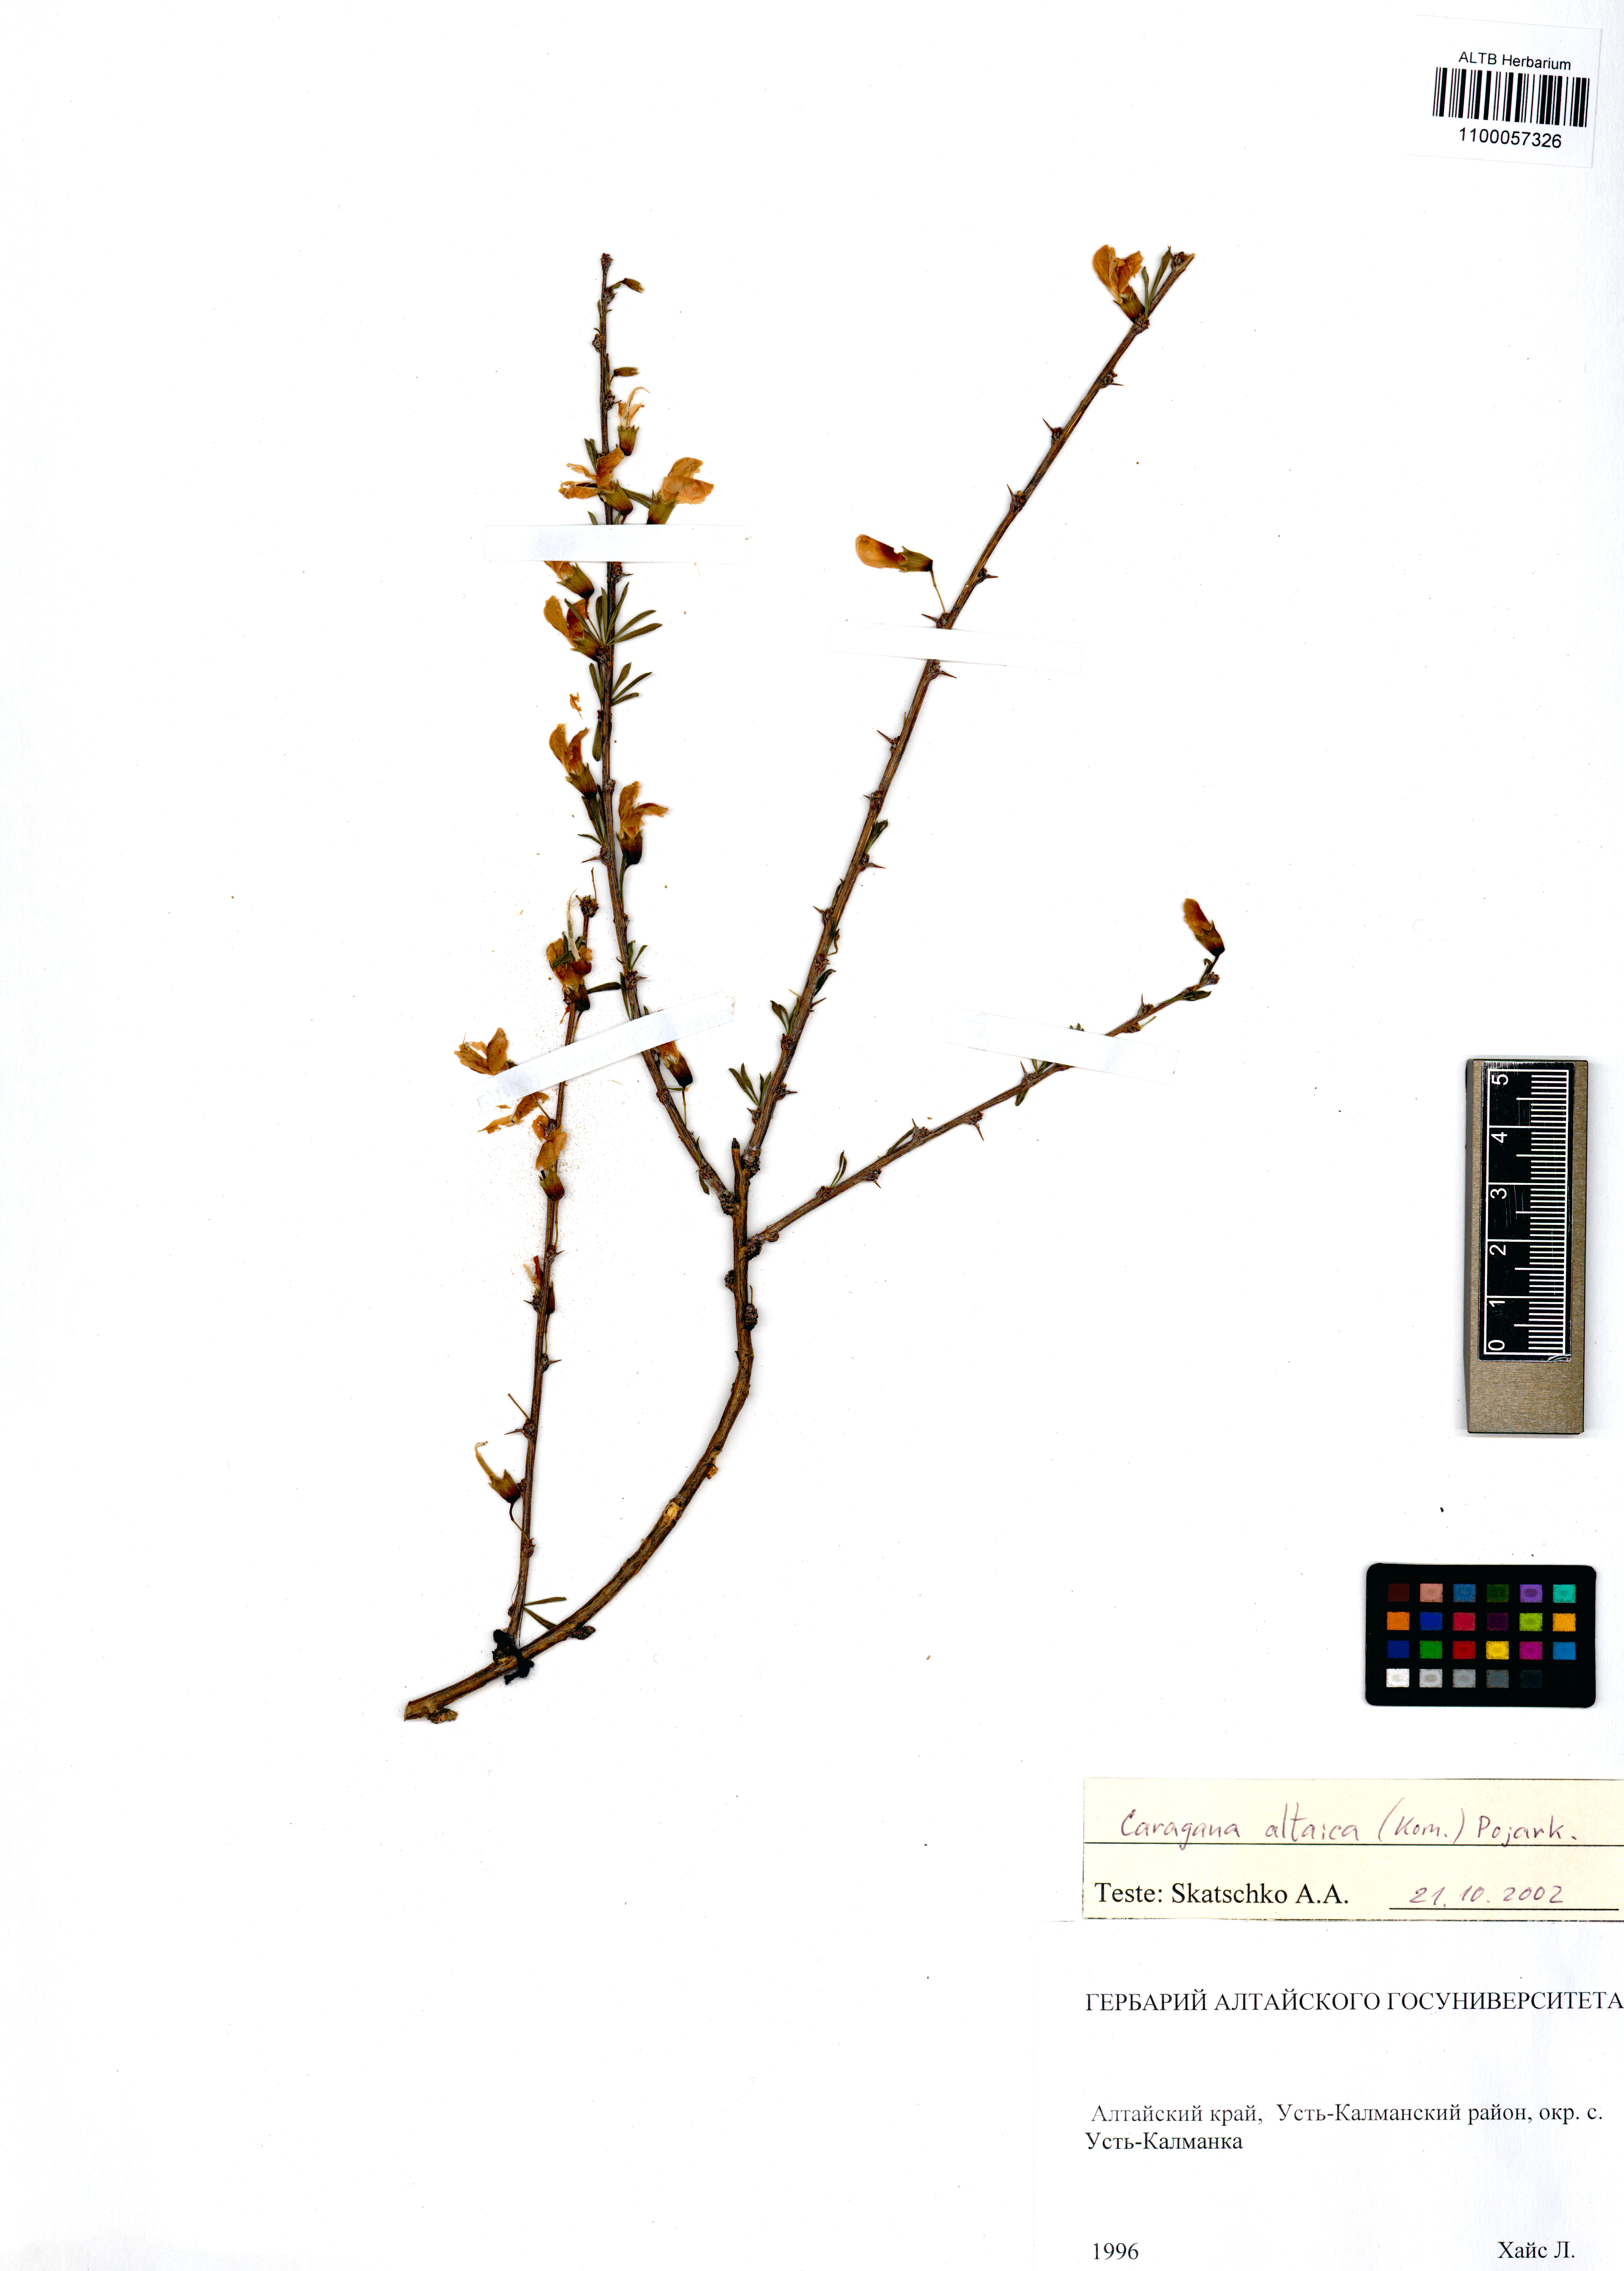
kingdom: Plantae
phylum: Tracheophyta
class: Magnoliopsida
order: Fabales
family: Fabaceae
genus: Caragana
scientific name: Caragana pygmaea
